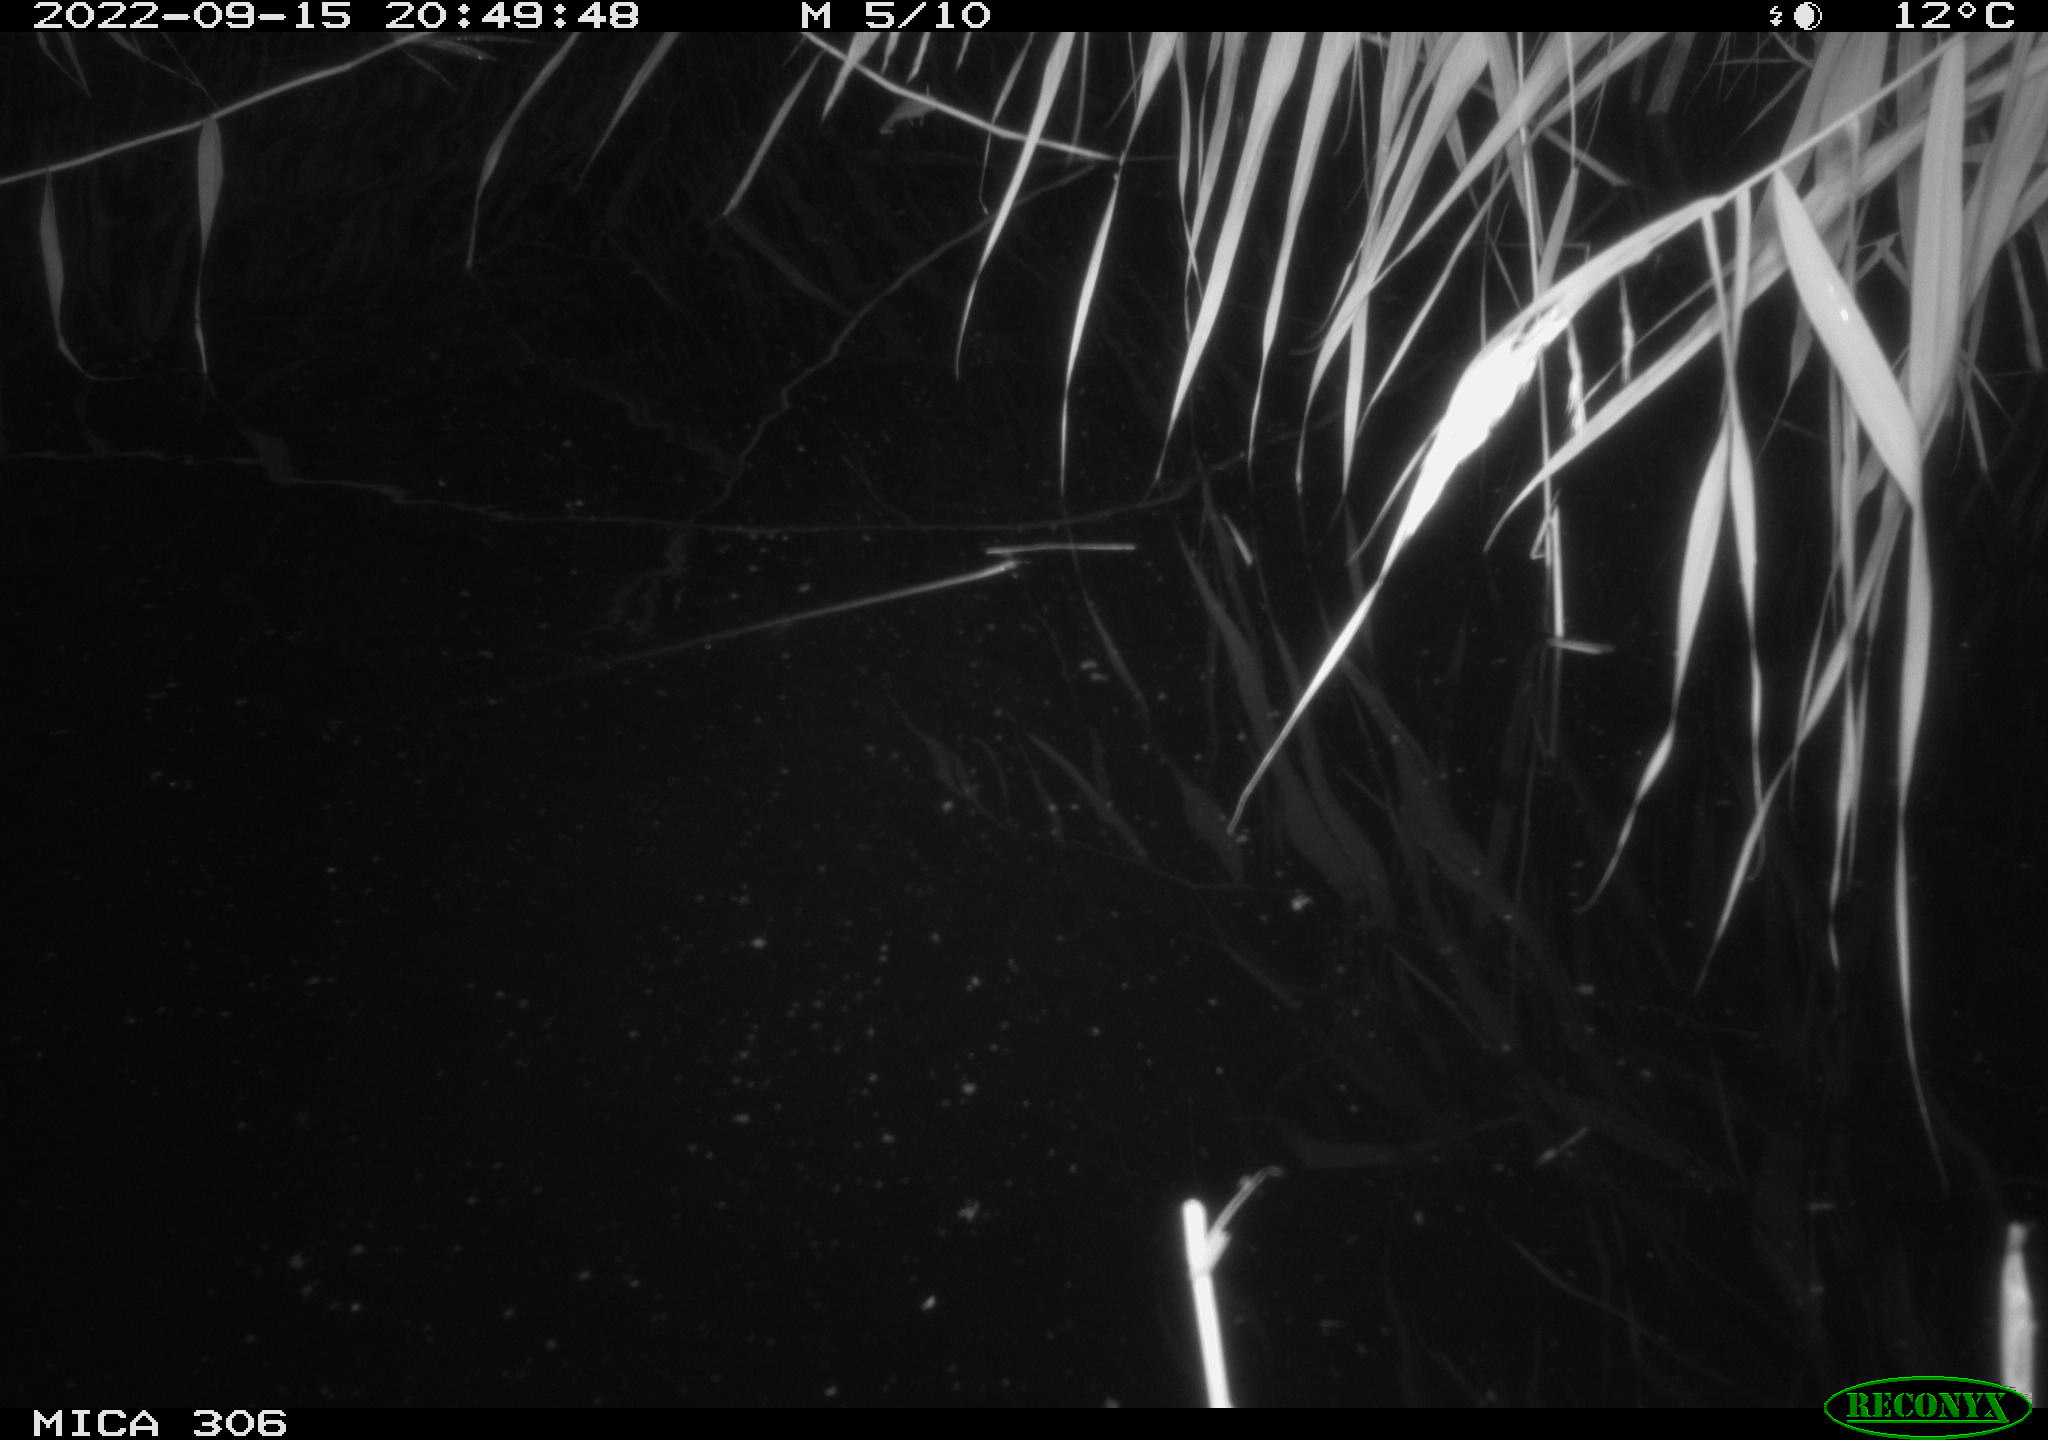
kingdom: Animalia
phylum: Chordata
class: Mammalia
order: Rodentia
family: Muridae
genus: Rattus
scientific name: Rattus norvegicus
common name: Brown rat
